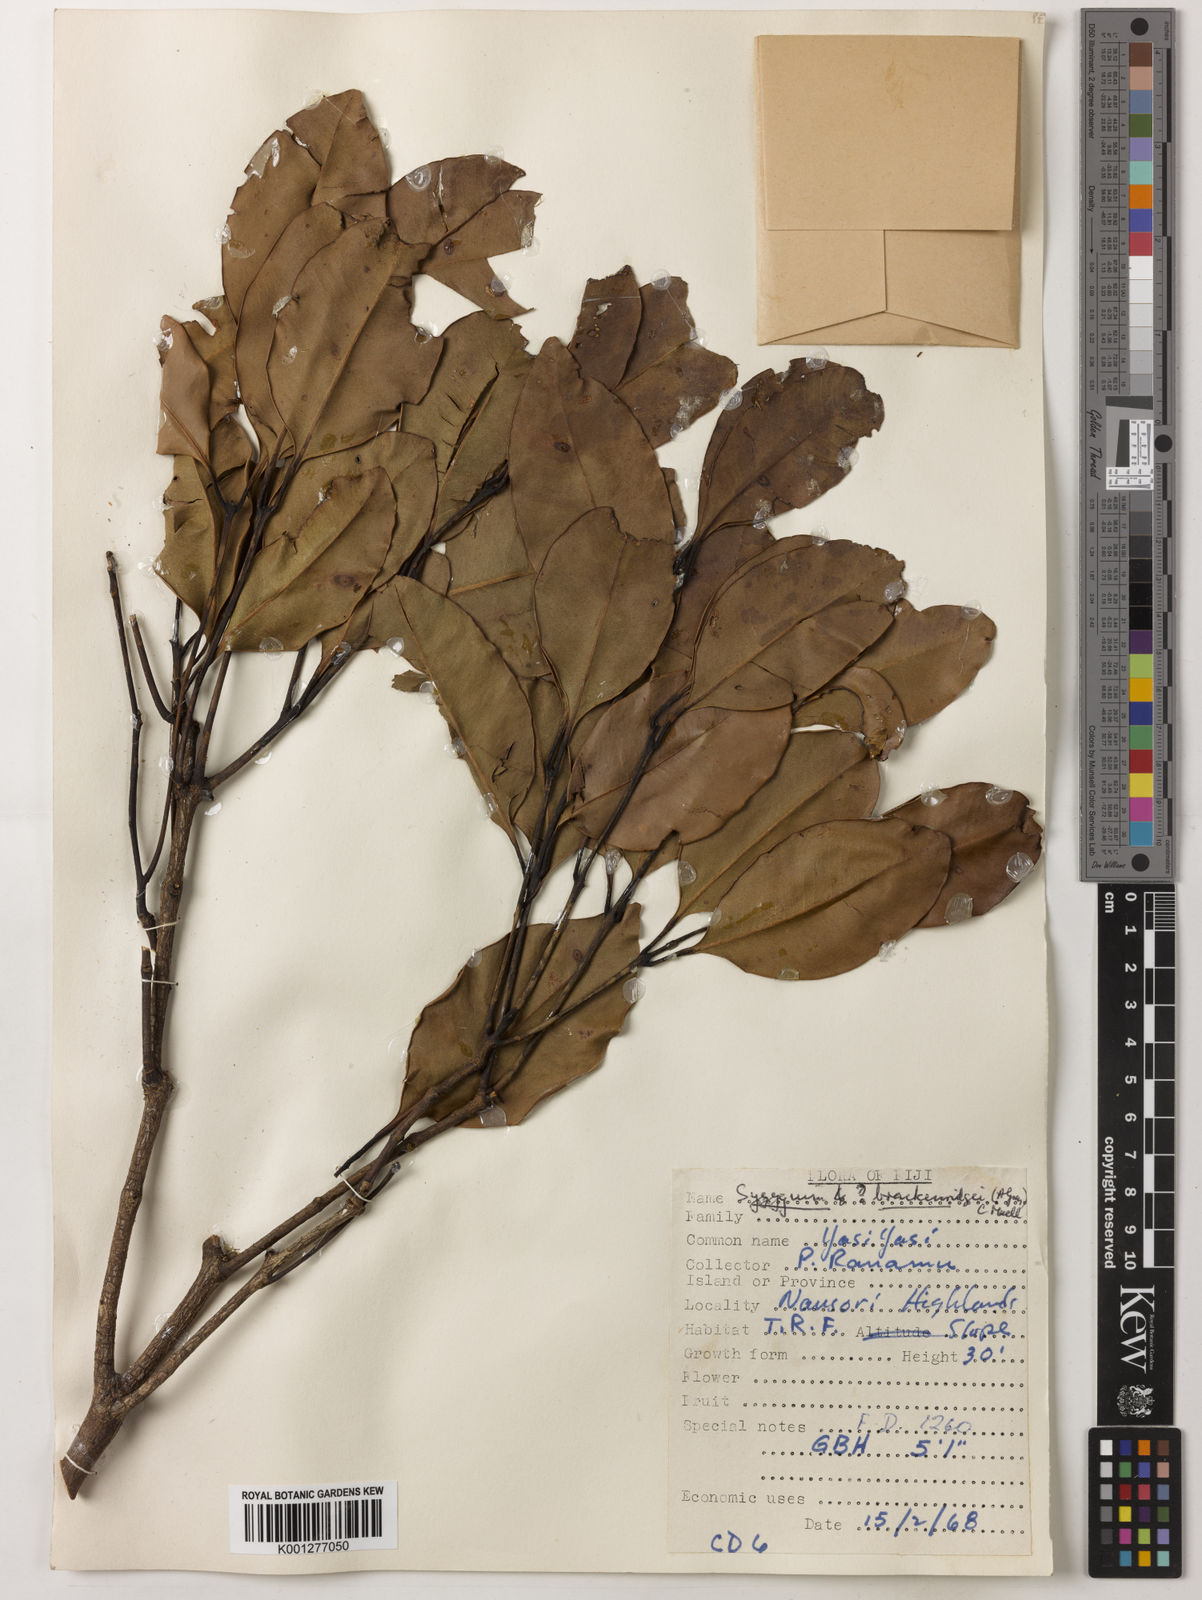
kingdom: Plantae
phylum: Tracheophyta
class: Magnoliopsida
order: Myrtales
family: Myrtaceae
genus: Syzygium
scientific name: Syzygium
